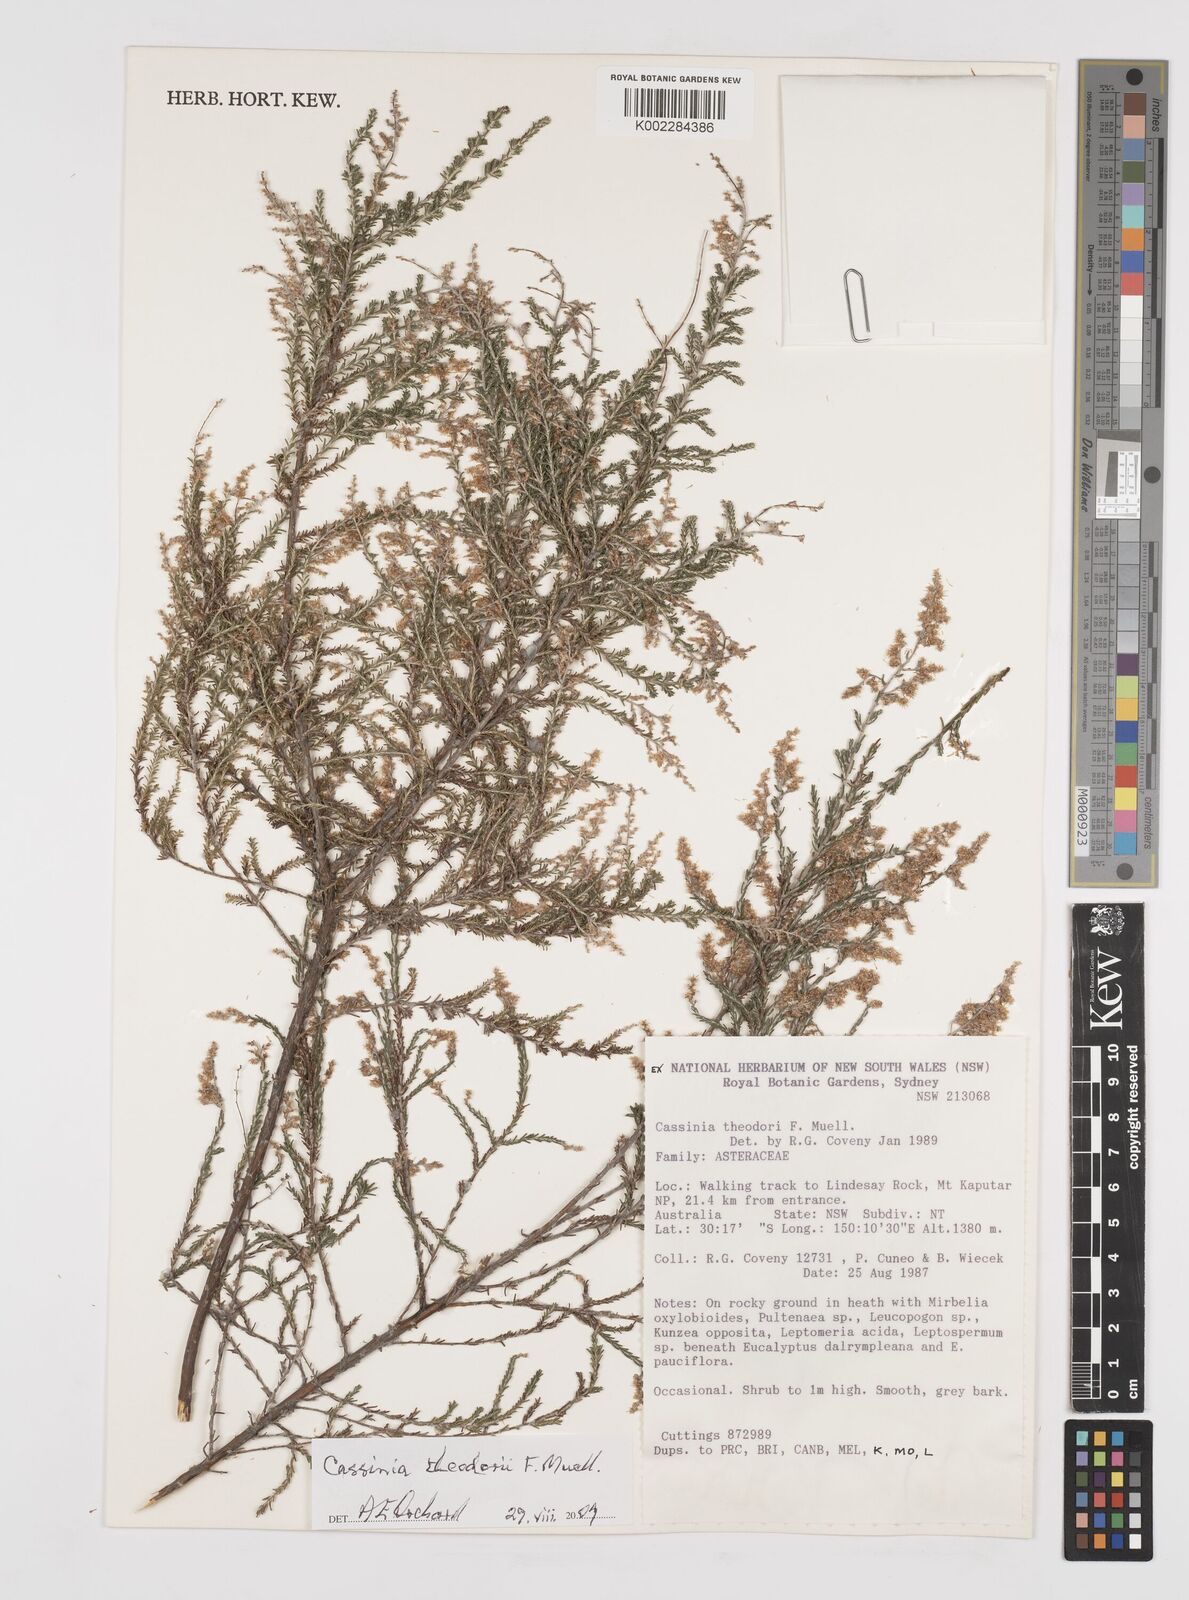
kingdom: Plantae
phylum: Tracheophyta
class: Magnoliopsida
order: Asterales
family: Asteraceae
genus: Cassinia
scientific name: Cassinia theodori
